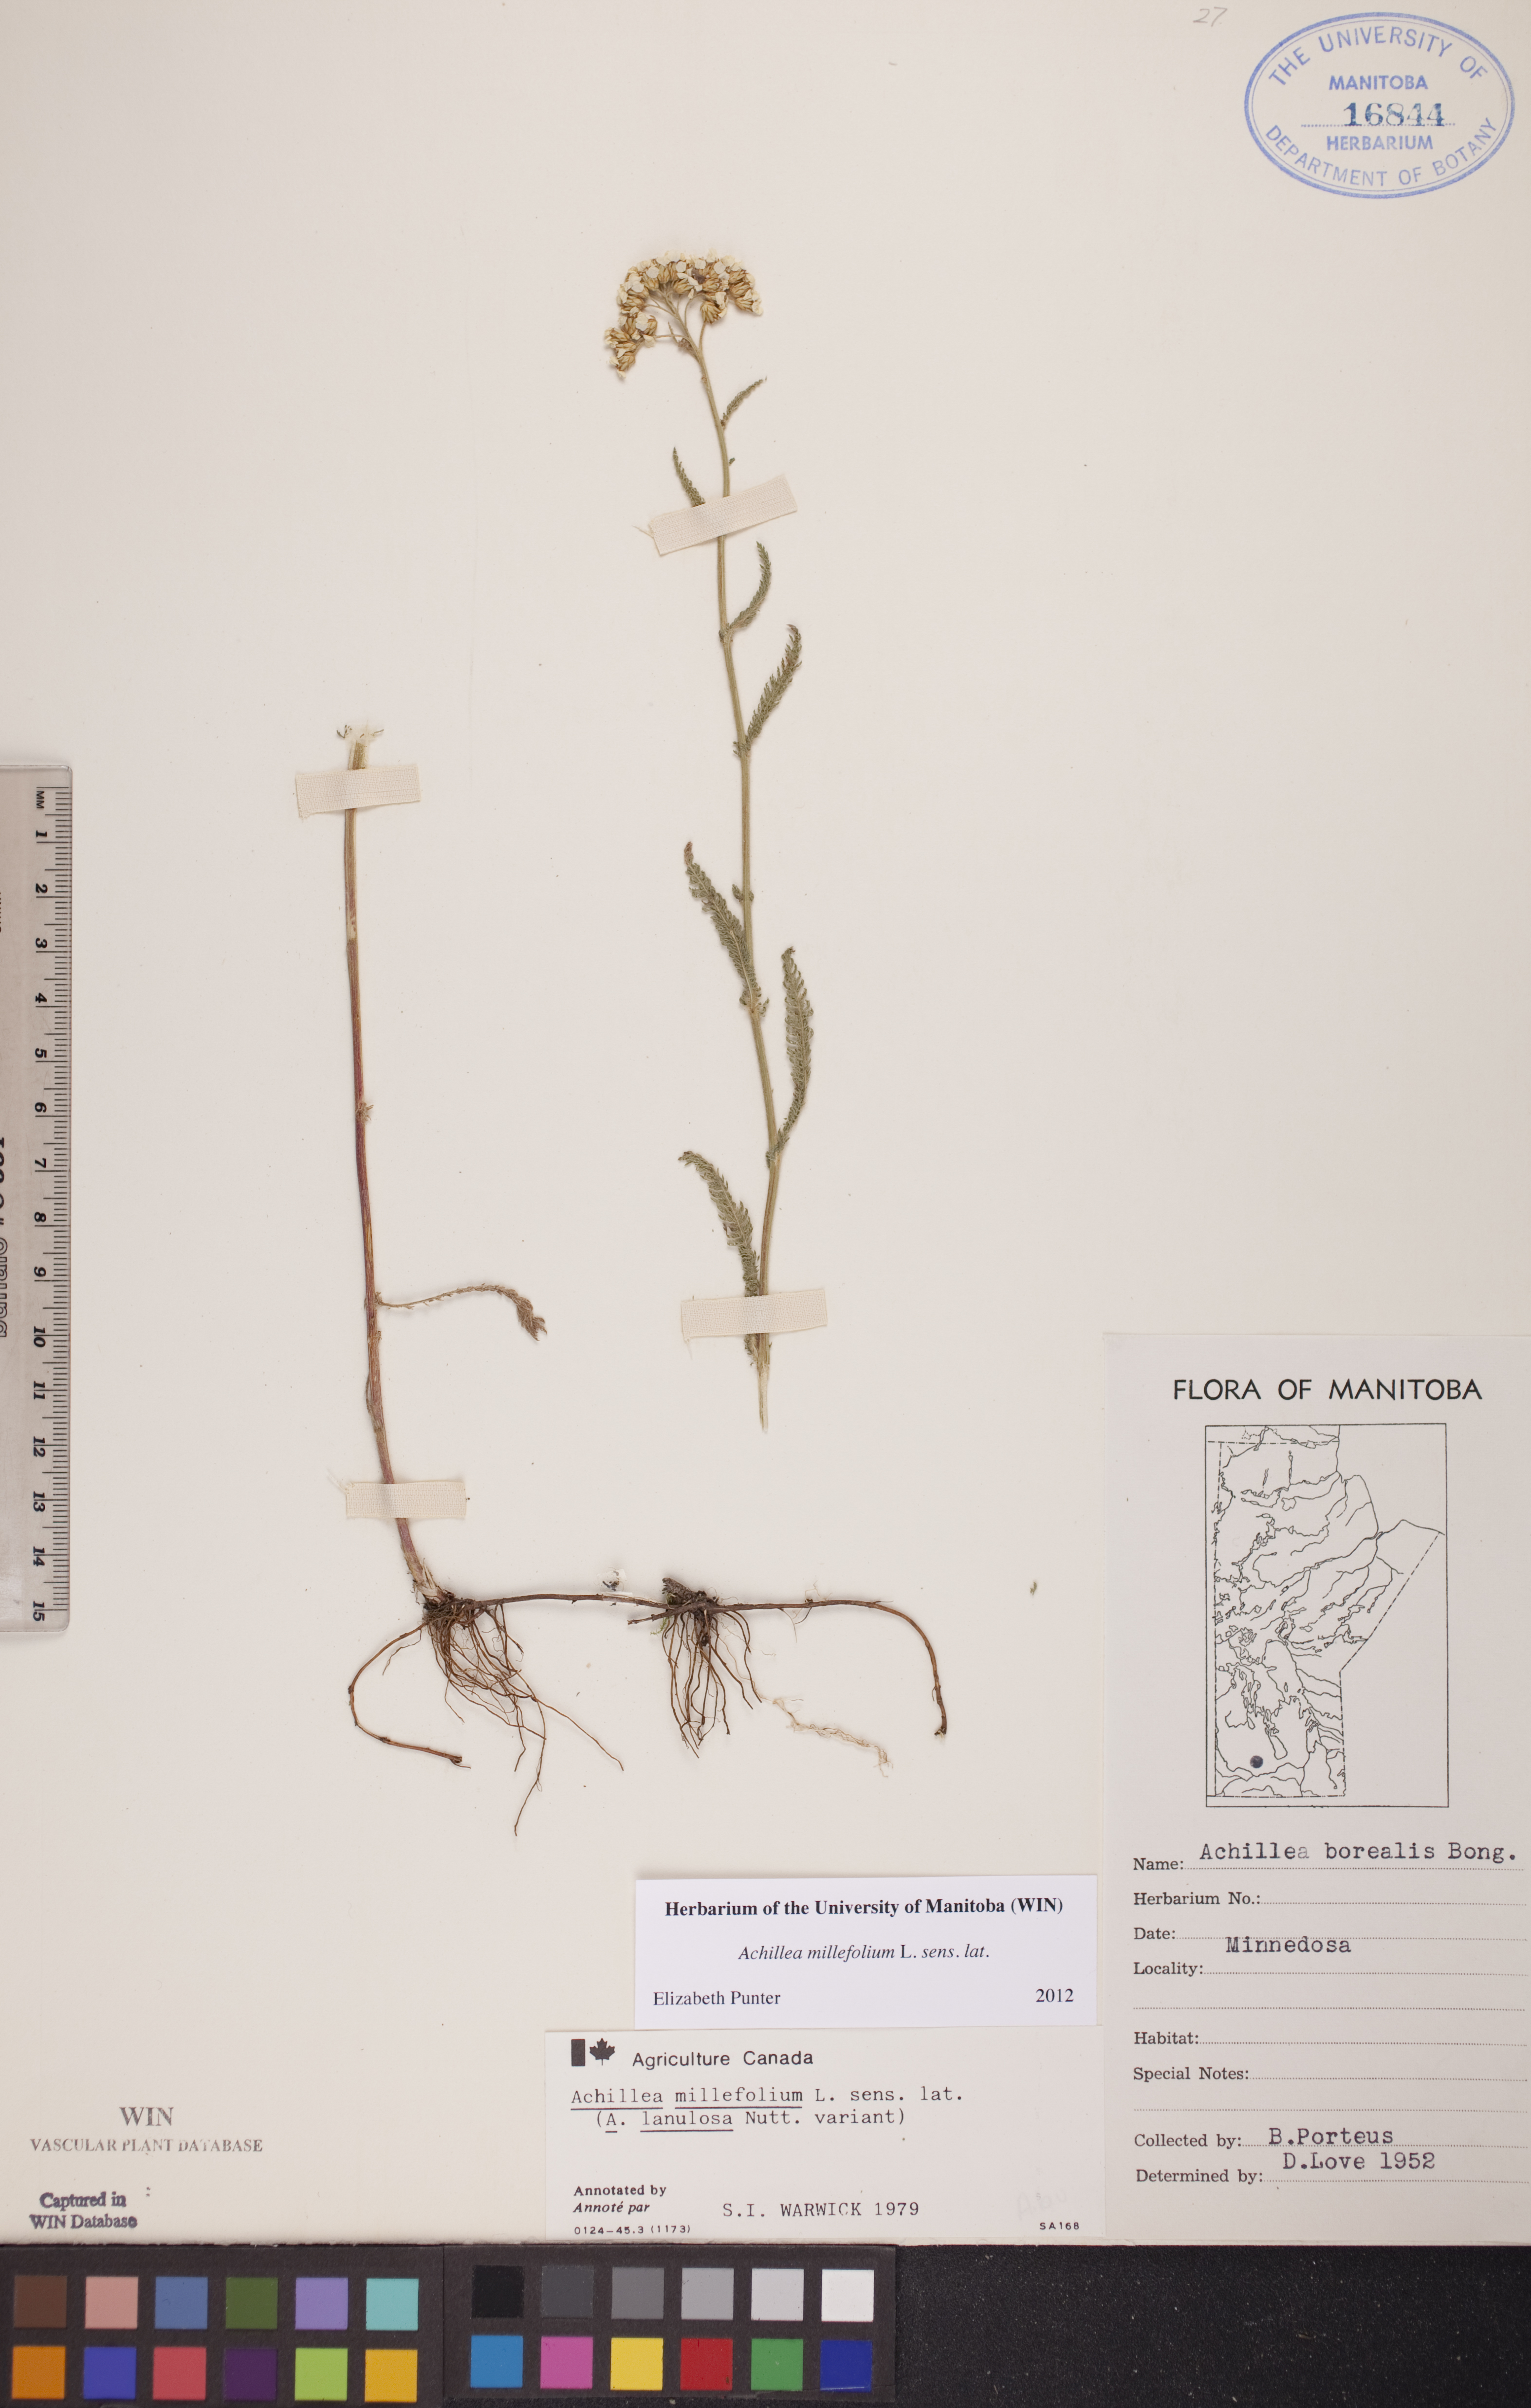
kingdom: Plantae
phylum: Tracheophyta
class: Magnoliopsida
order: Asterales
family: Asteraceae
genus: Achillea
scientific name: Achillea millefolium
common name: Yarrow
